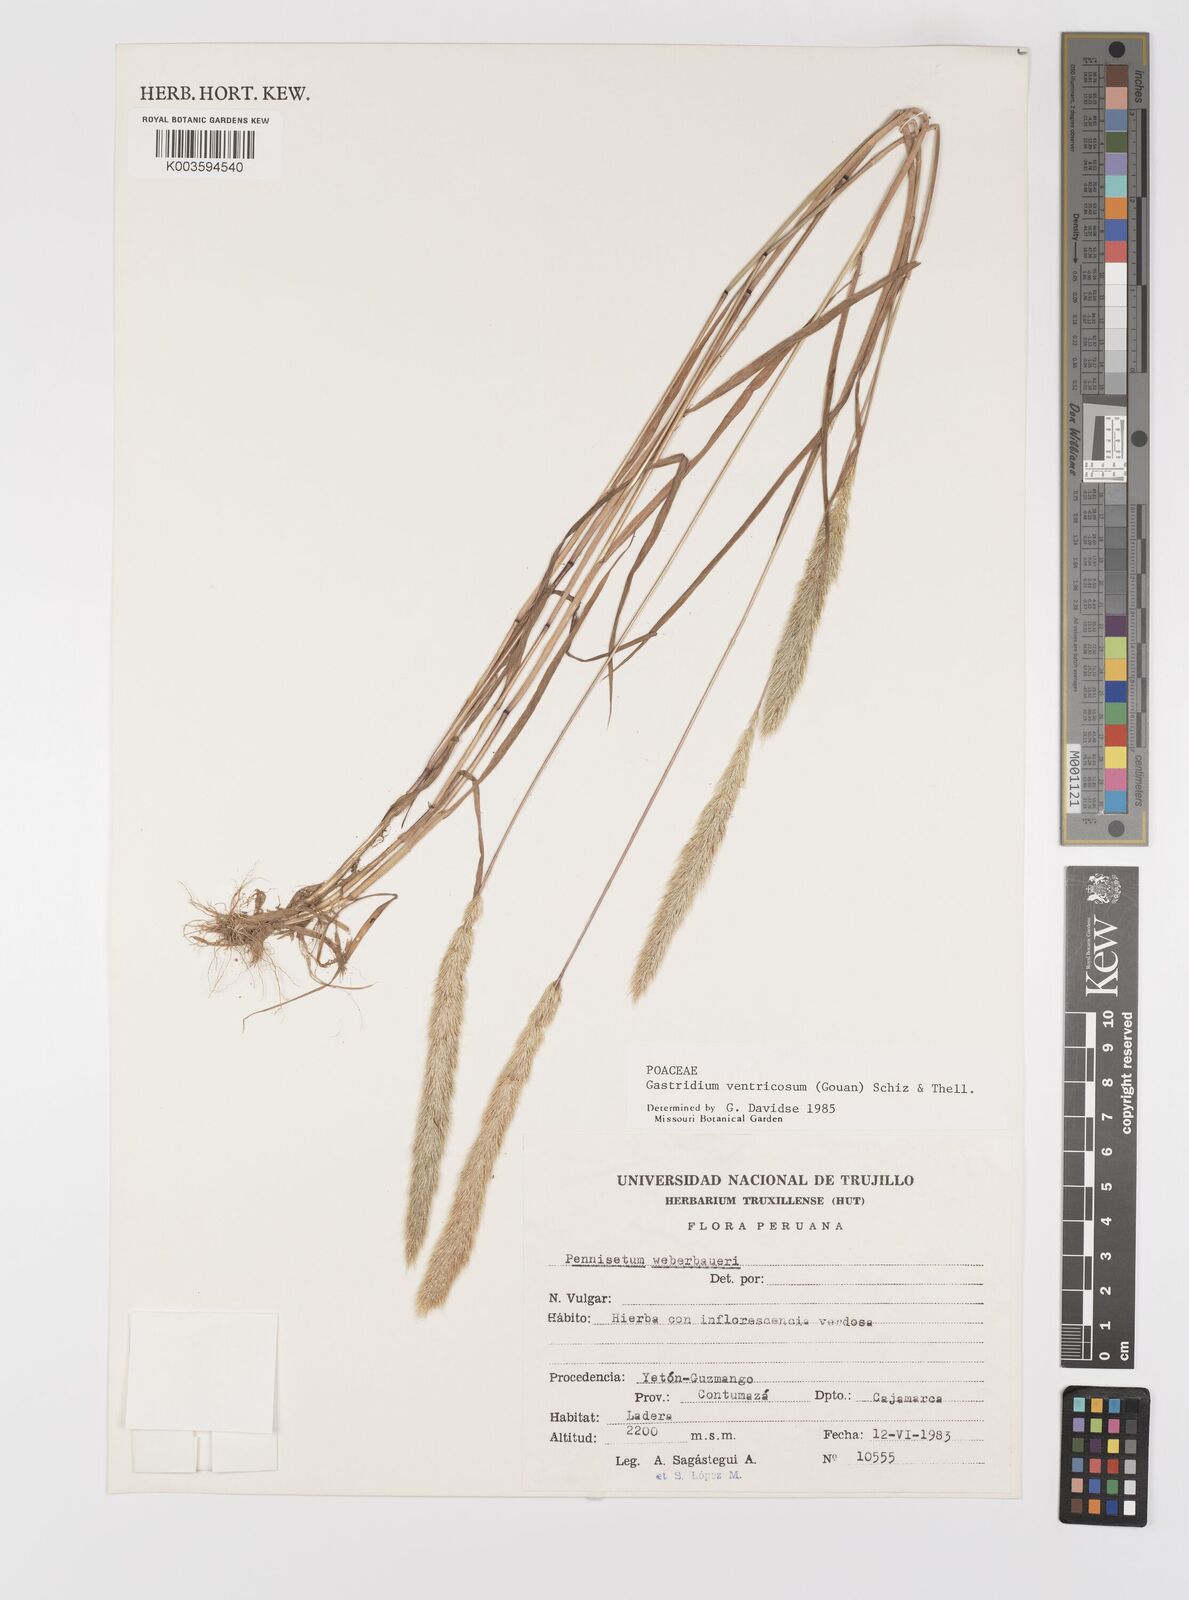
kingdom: Plantae
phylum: Tracheophyta
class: Liliopsida
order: Poales
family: Poaceae
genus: Gastridium
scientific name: Gastridium ventricosum
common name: Nit-grass
